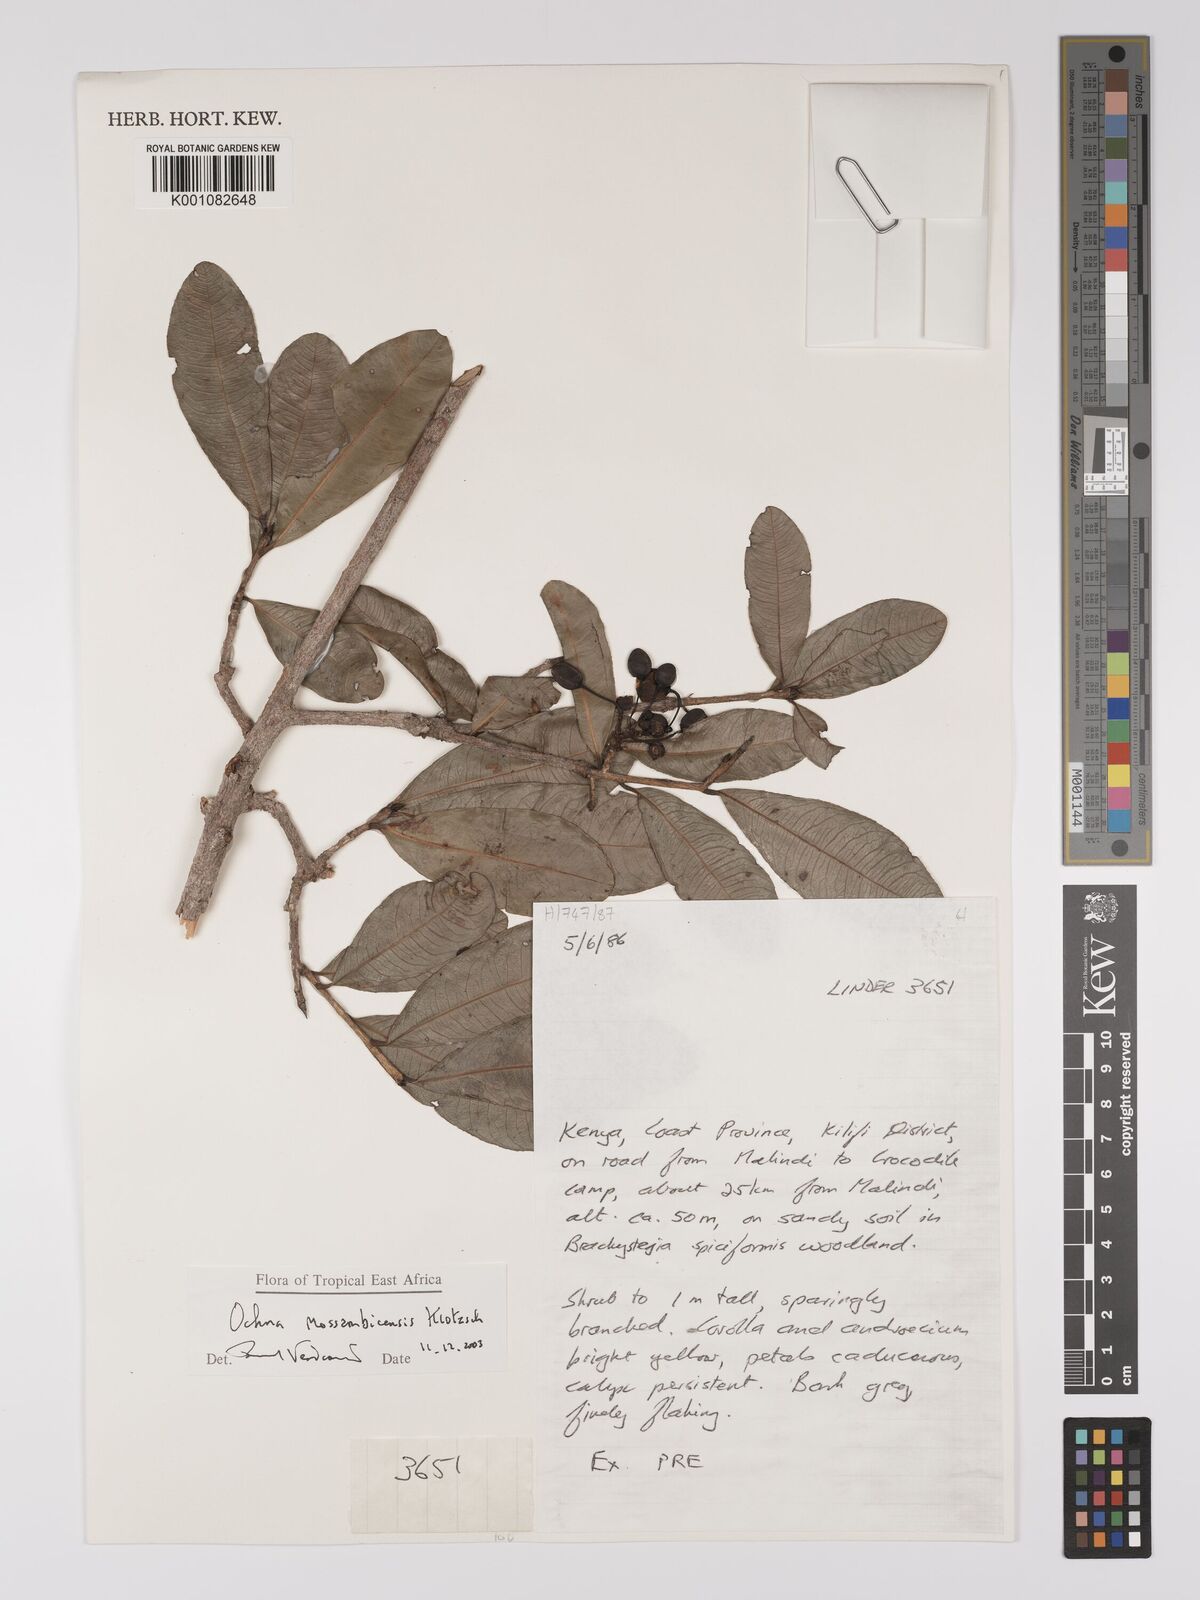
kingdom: Plantae
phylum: Tracheophyta
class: Magnoliopsida
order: Malpighiales
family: Ochnaceae
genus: Ochna
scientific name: Ochna atropurpurea
